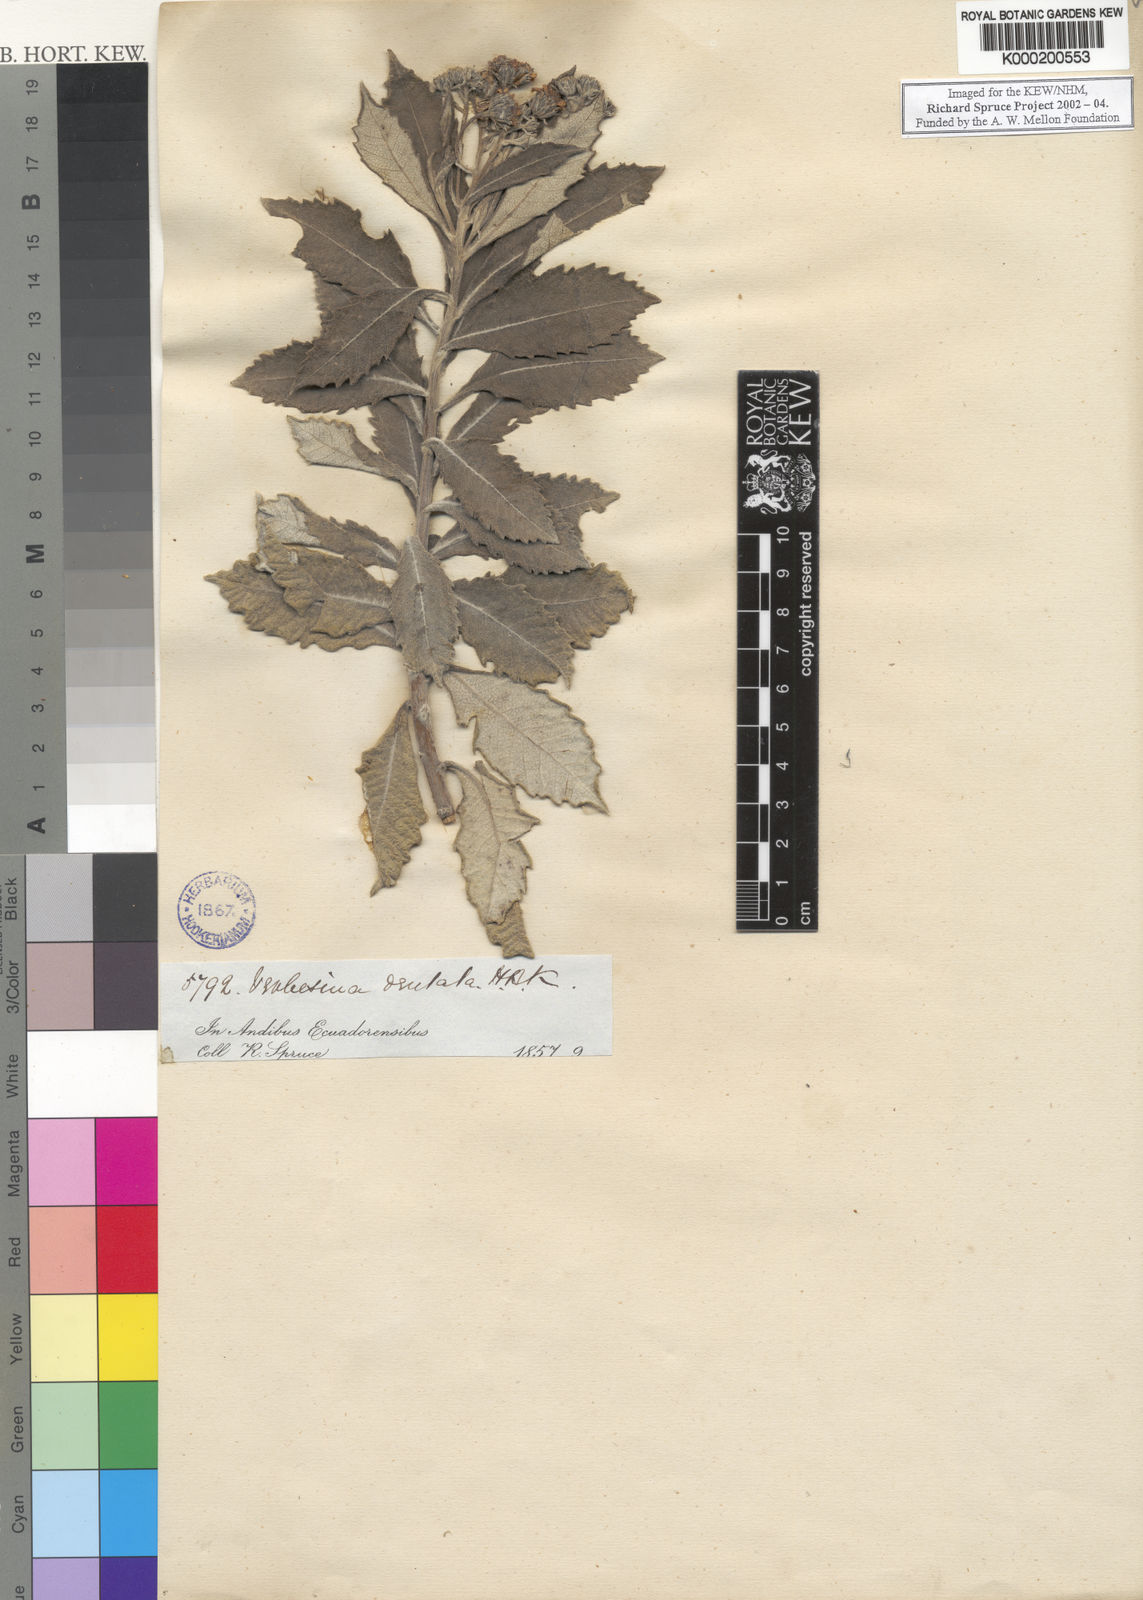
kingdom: Plantae
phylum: Tracheophyta
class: Magnoliopsida
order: Asterales
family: Asteraceae
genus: Verbesina
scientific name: Verbesina dentata
